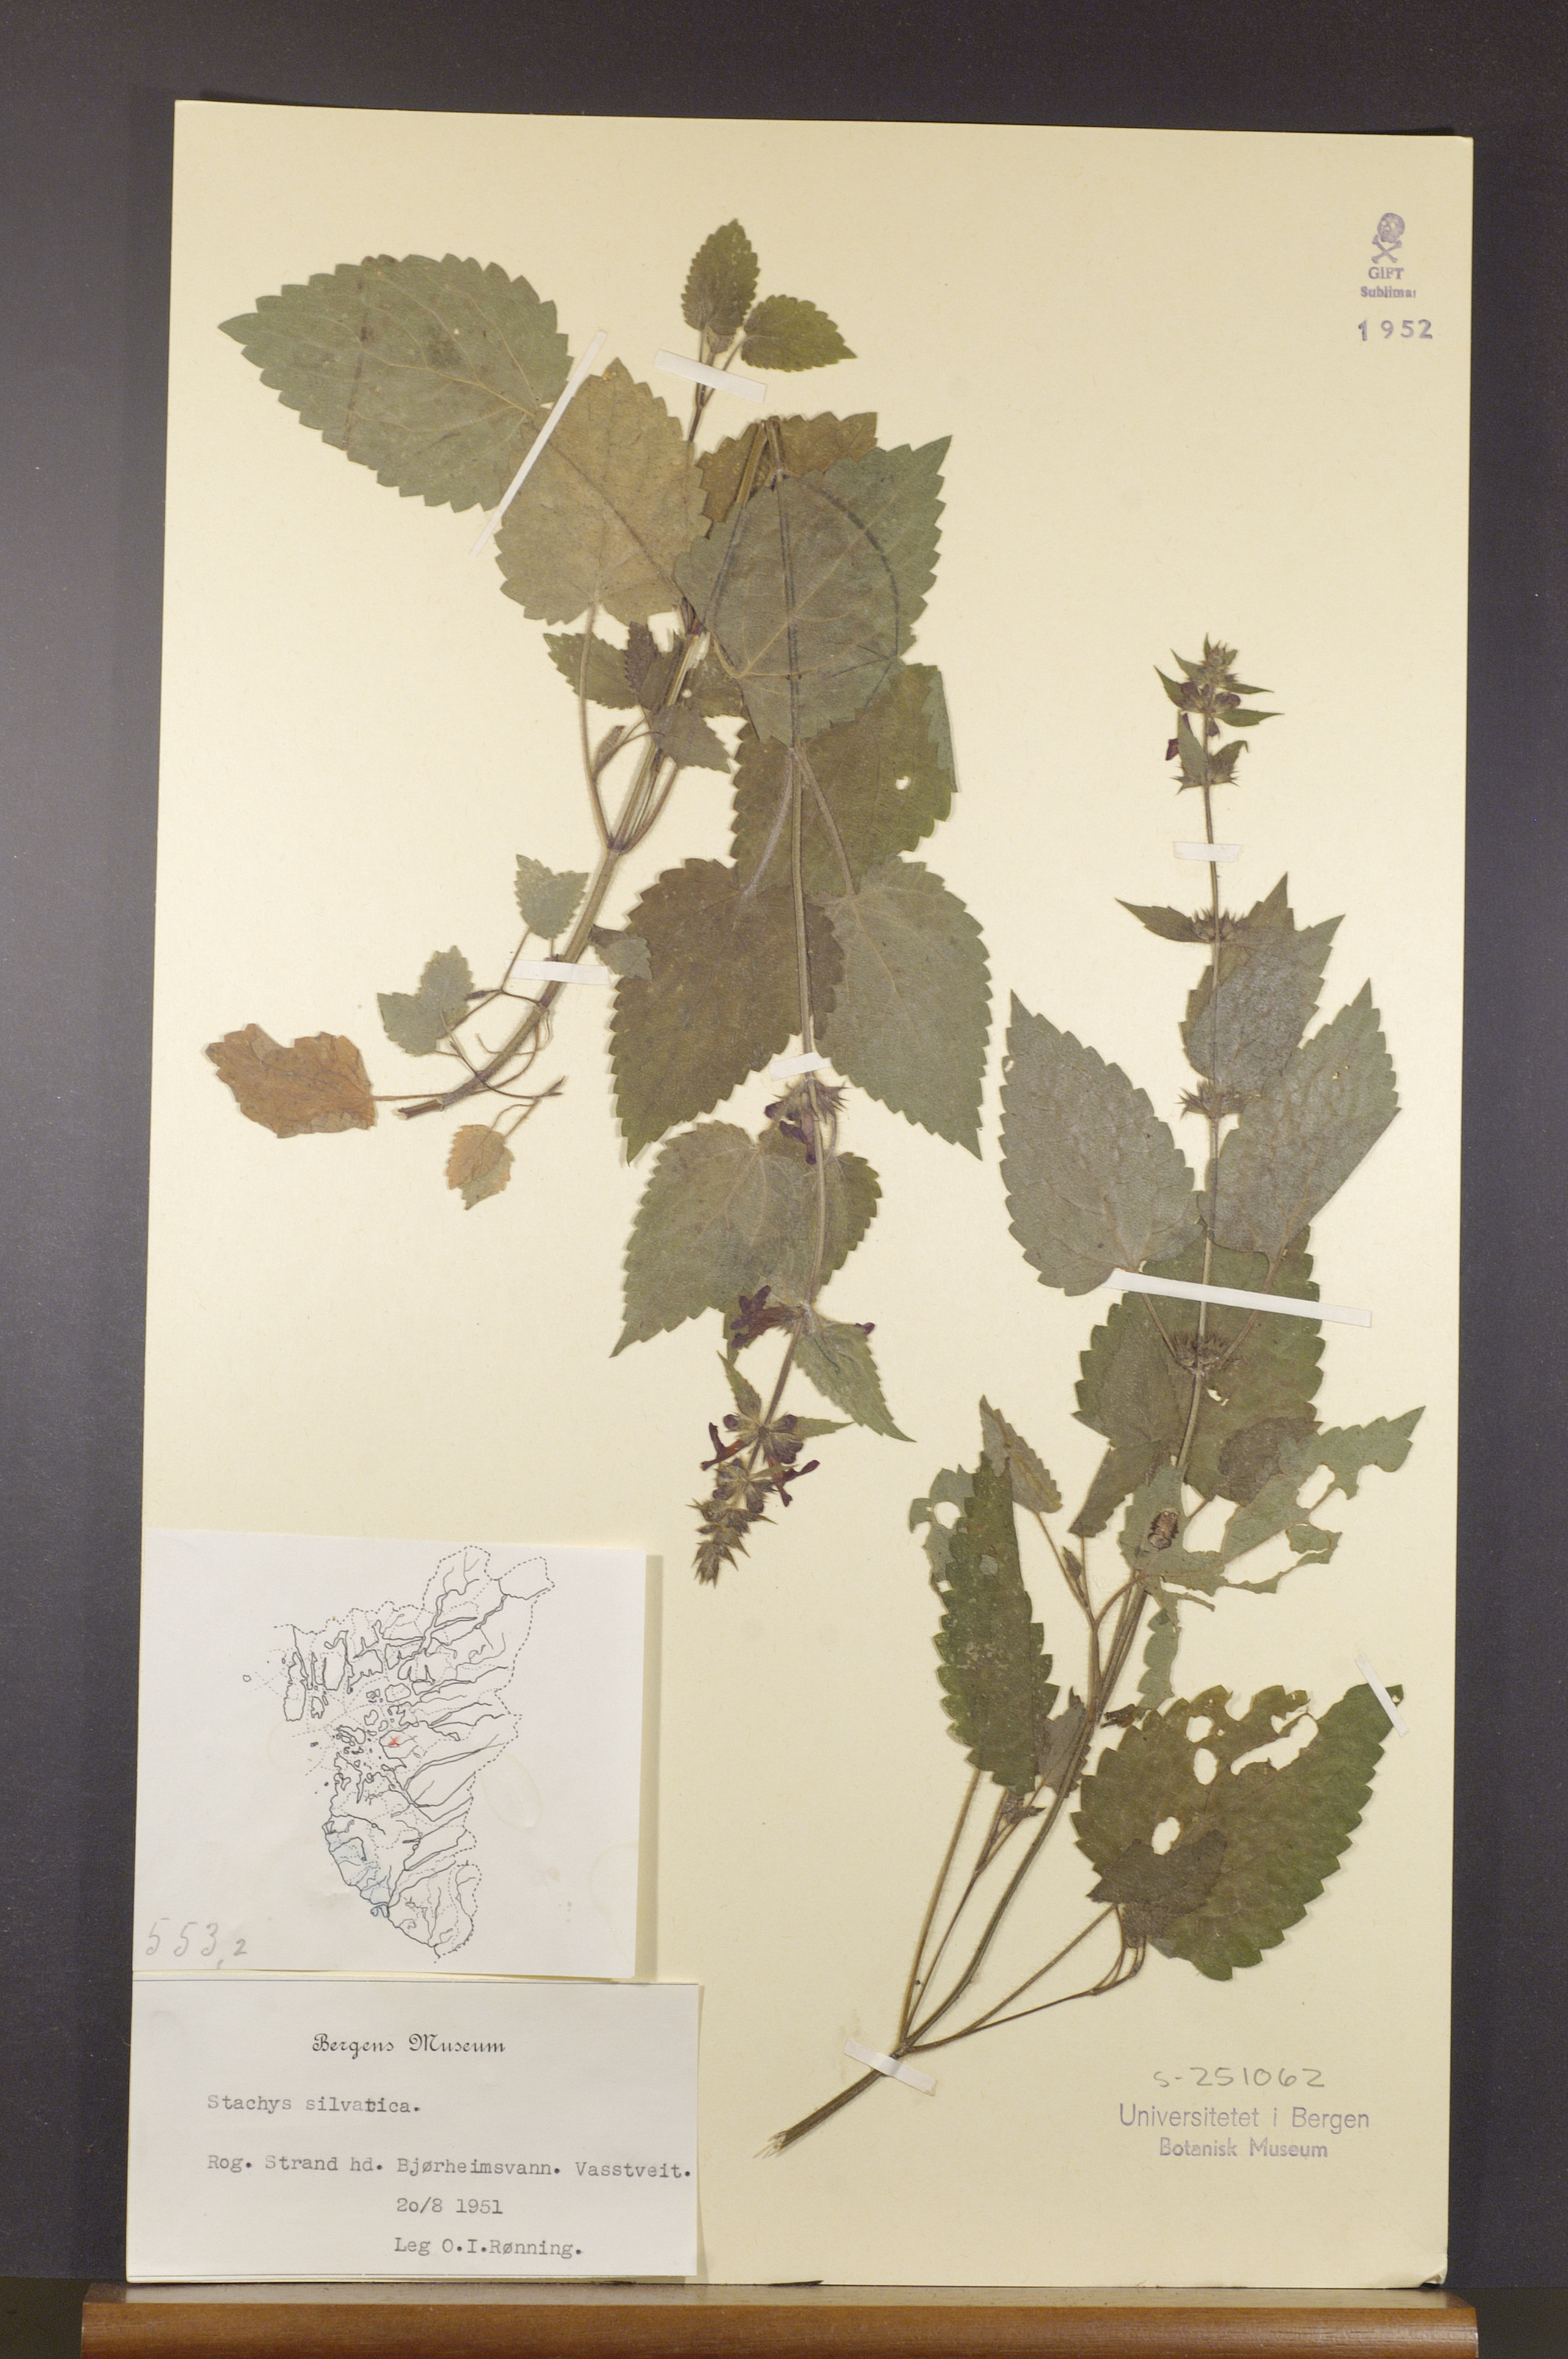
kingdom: Plantae
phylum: Tracheophyta
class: Magnoliopsida
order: Lamiales
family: Lamiaceae
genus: Stachys
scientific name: Stachys sylvatica
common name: Hedge woundwort
